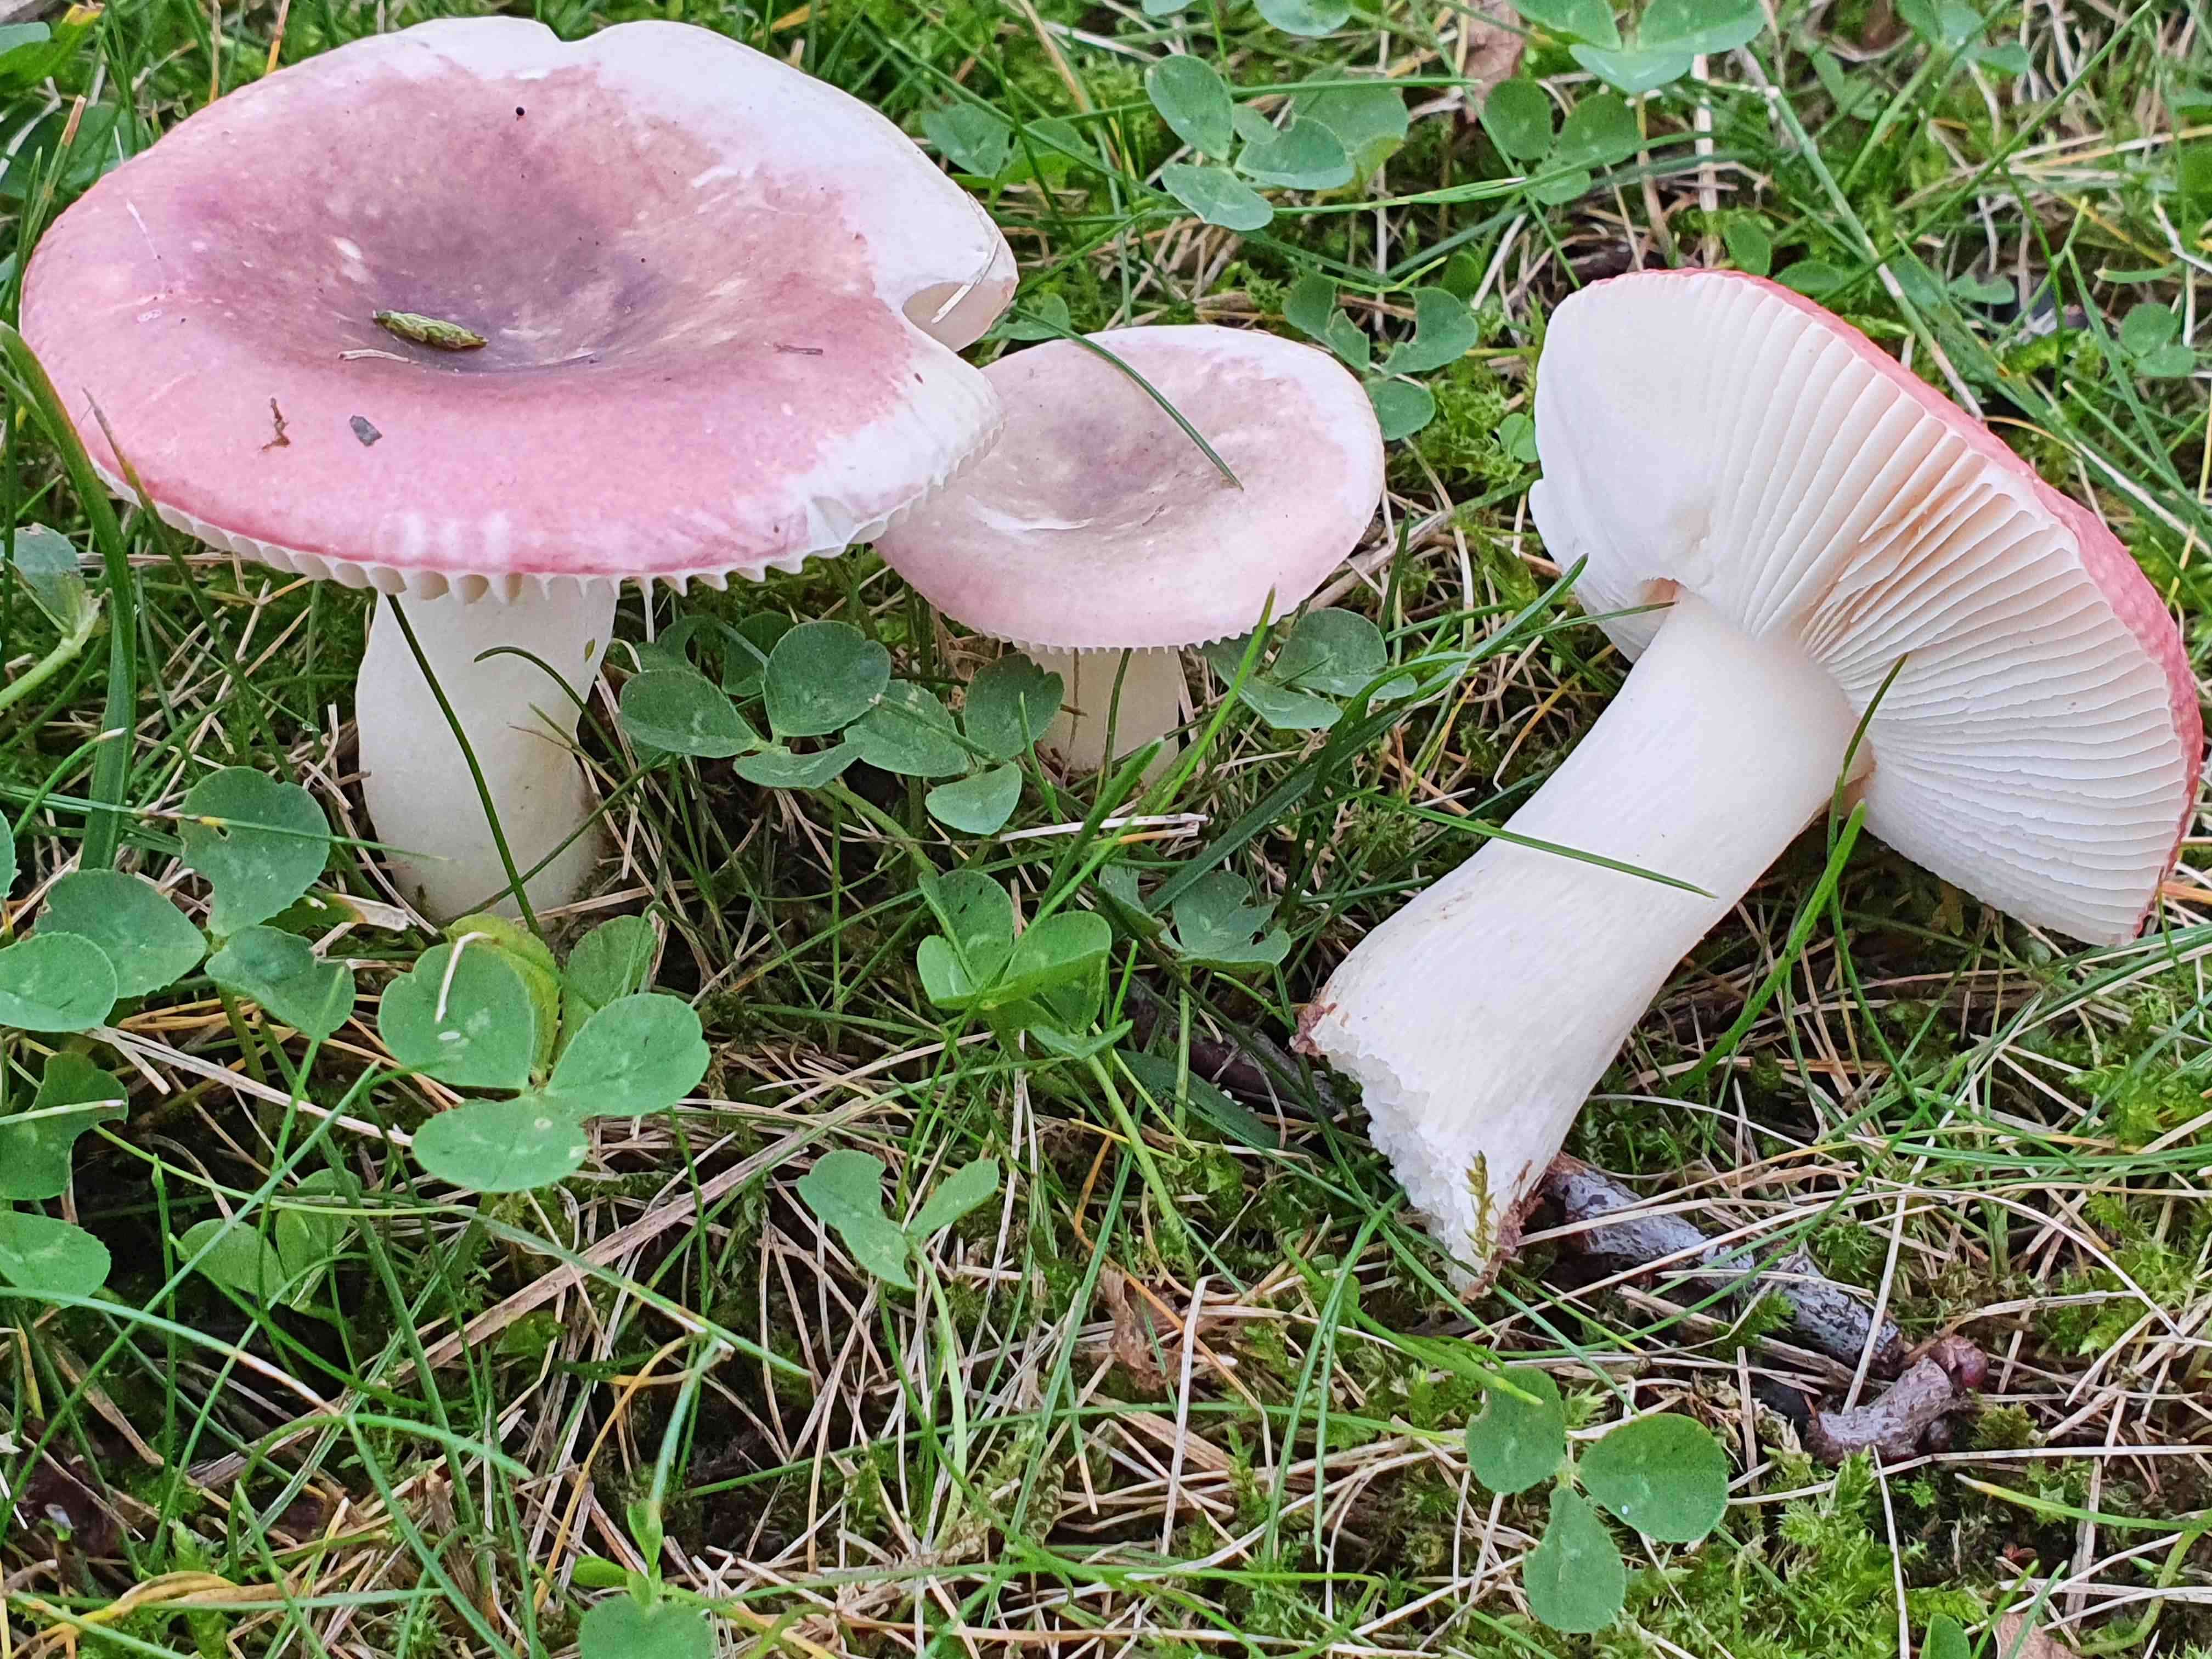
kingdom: Fungi
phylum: Basidiomycota
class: Agaricomycetes
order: Russulales
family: Russulaceae
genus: Russula
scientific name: Russula fragilis
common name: savbladet skørhat
